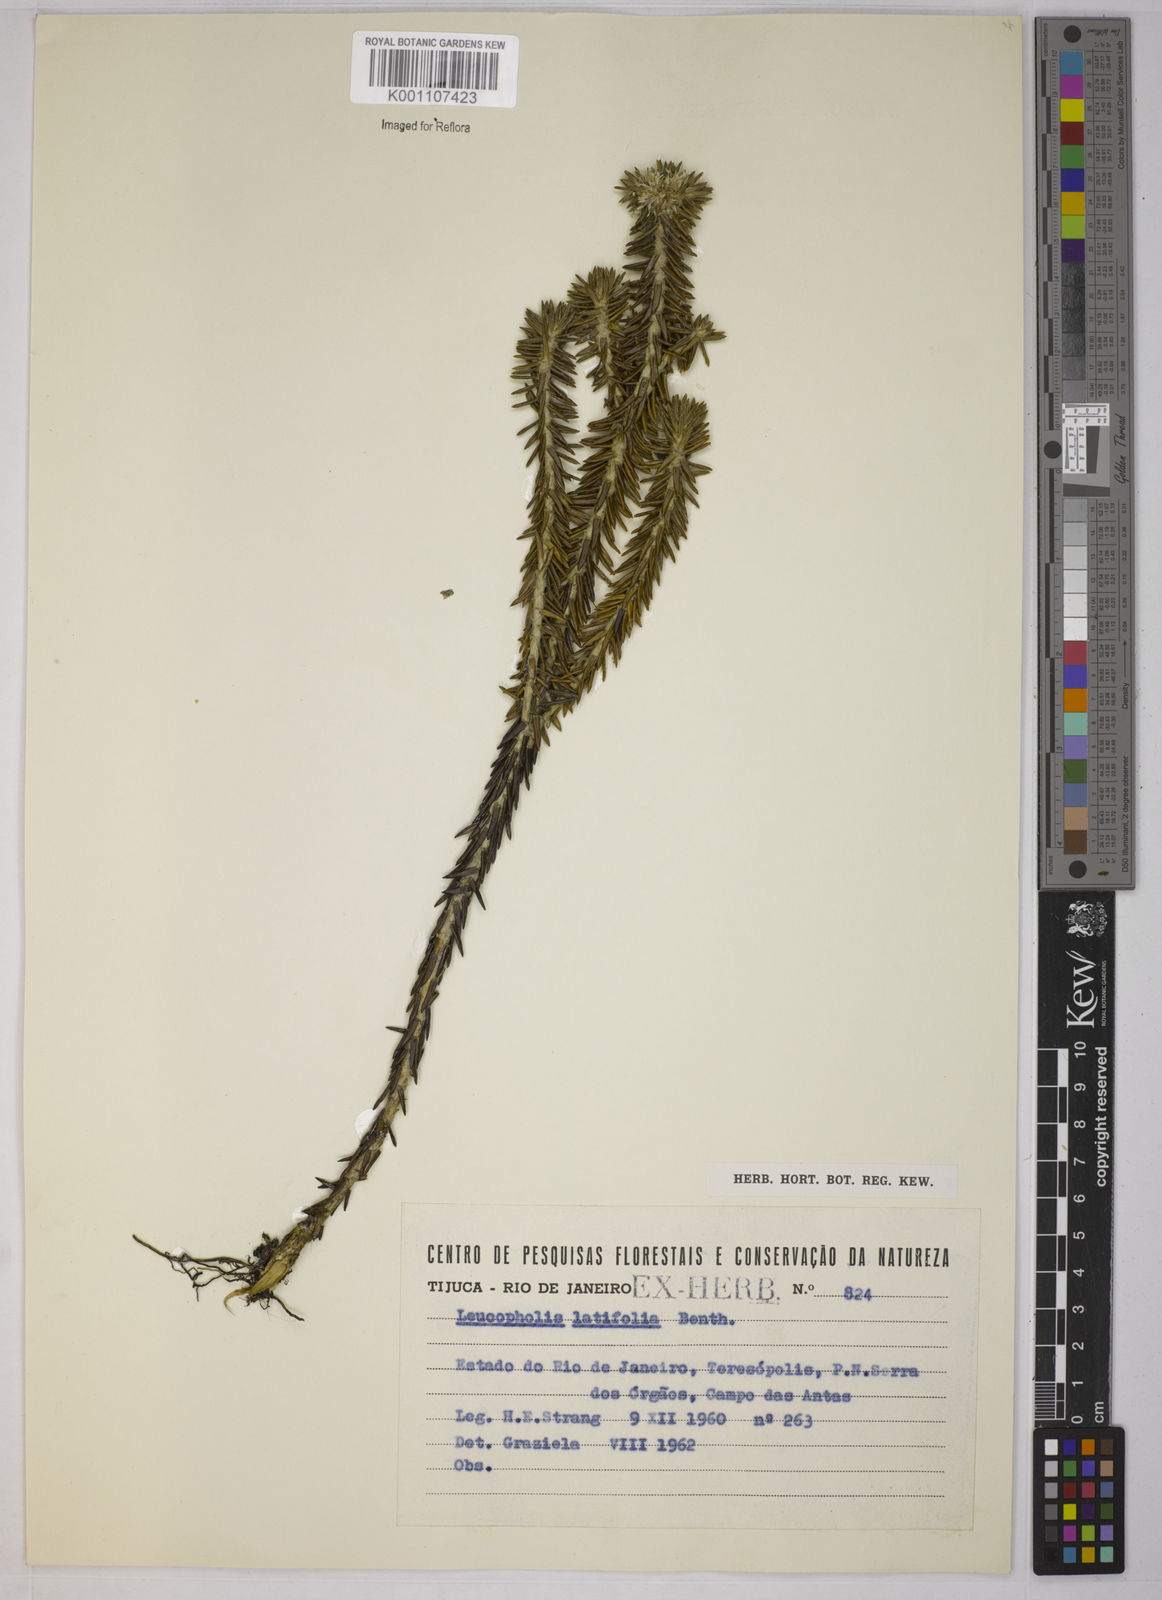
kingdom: Plantae
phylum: Tracheophyta
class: Magnoliopsida
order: Asterales
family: Asteraceae
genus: Chionolaena
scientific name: Chionolaena latifolia
